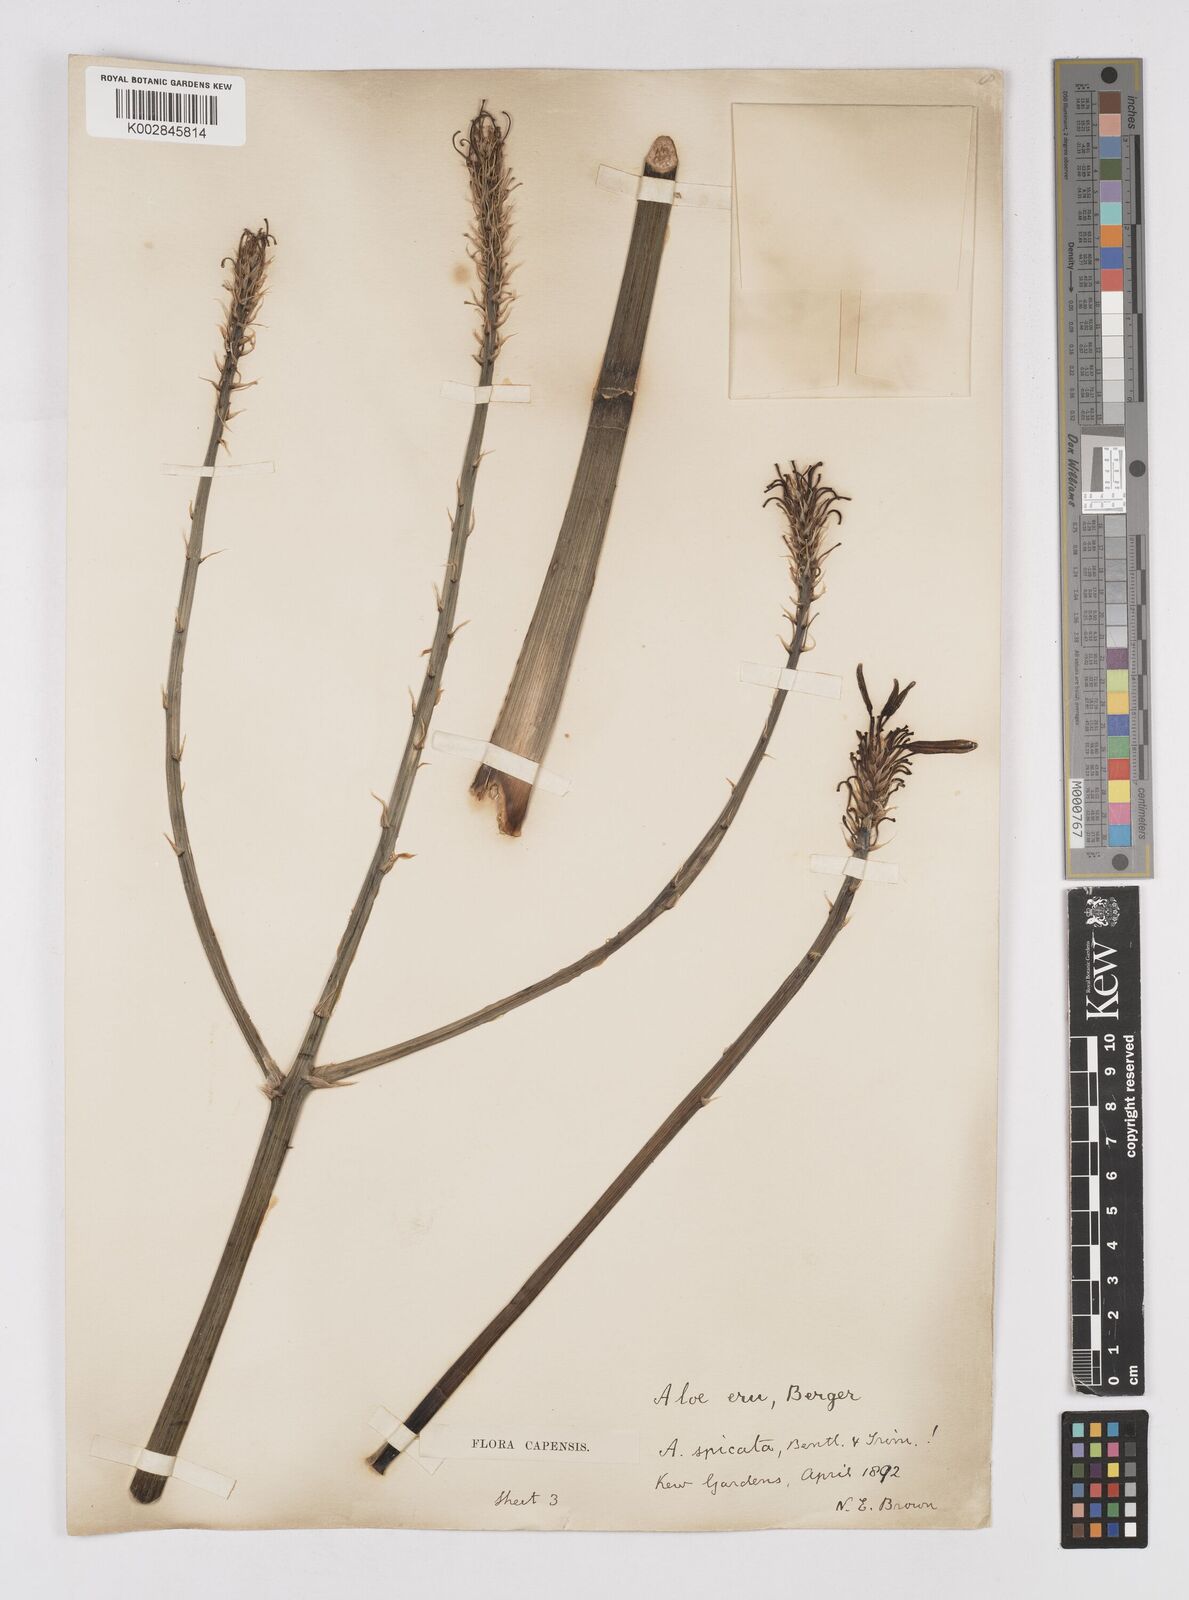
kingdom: Plantae
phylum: Tracheophyta
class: Liliopsida
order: Asparagales
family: Asphodelaceae
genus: Aloe
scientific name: Aloe camperi
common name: Camper's aloe
